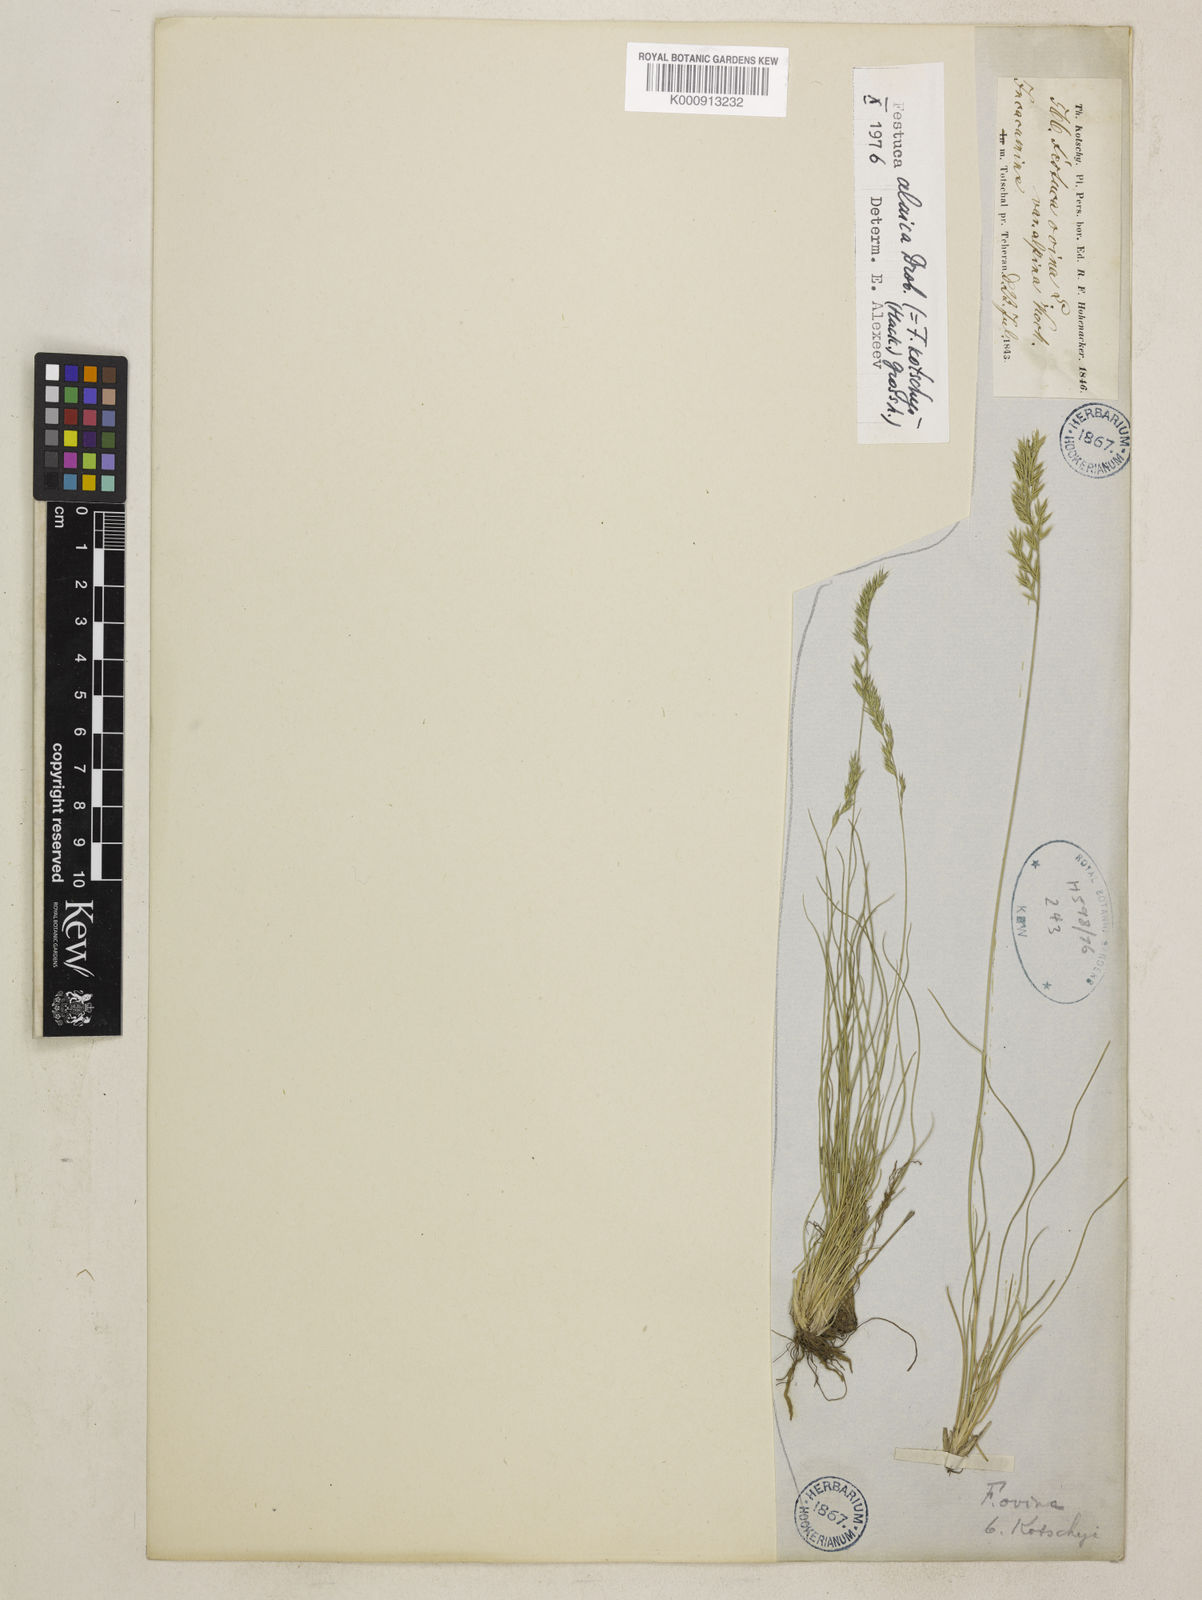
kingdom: Plantae
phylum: Tracheophyta
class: Liliopsida
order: Poales
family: Poaceae
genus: Festuca
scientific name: Festuca alaica
